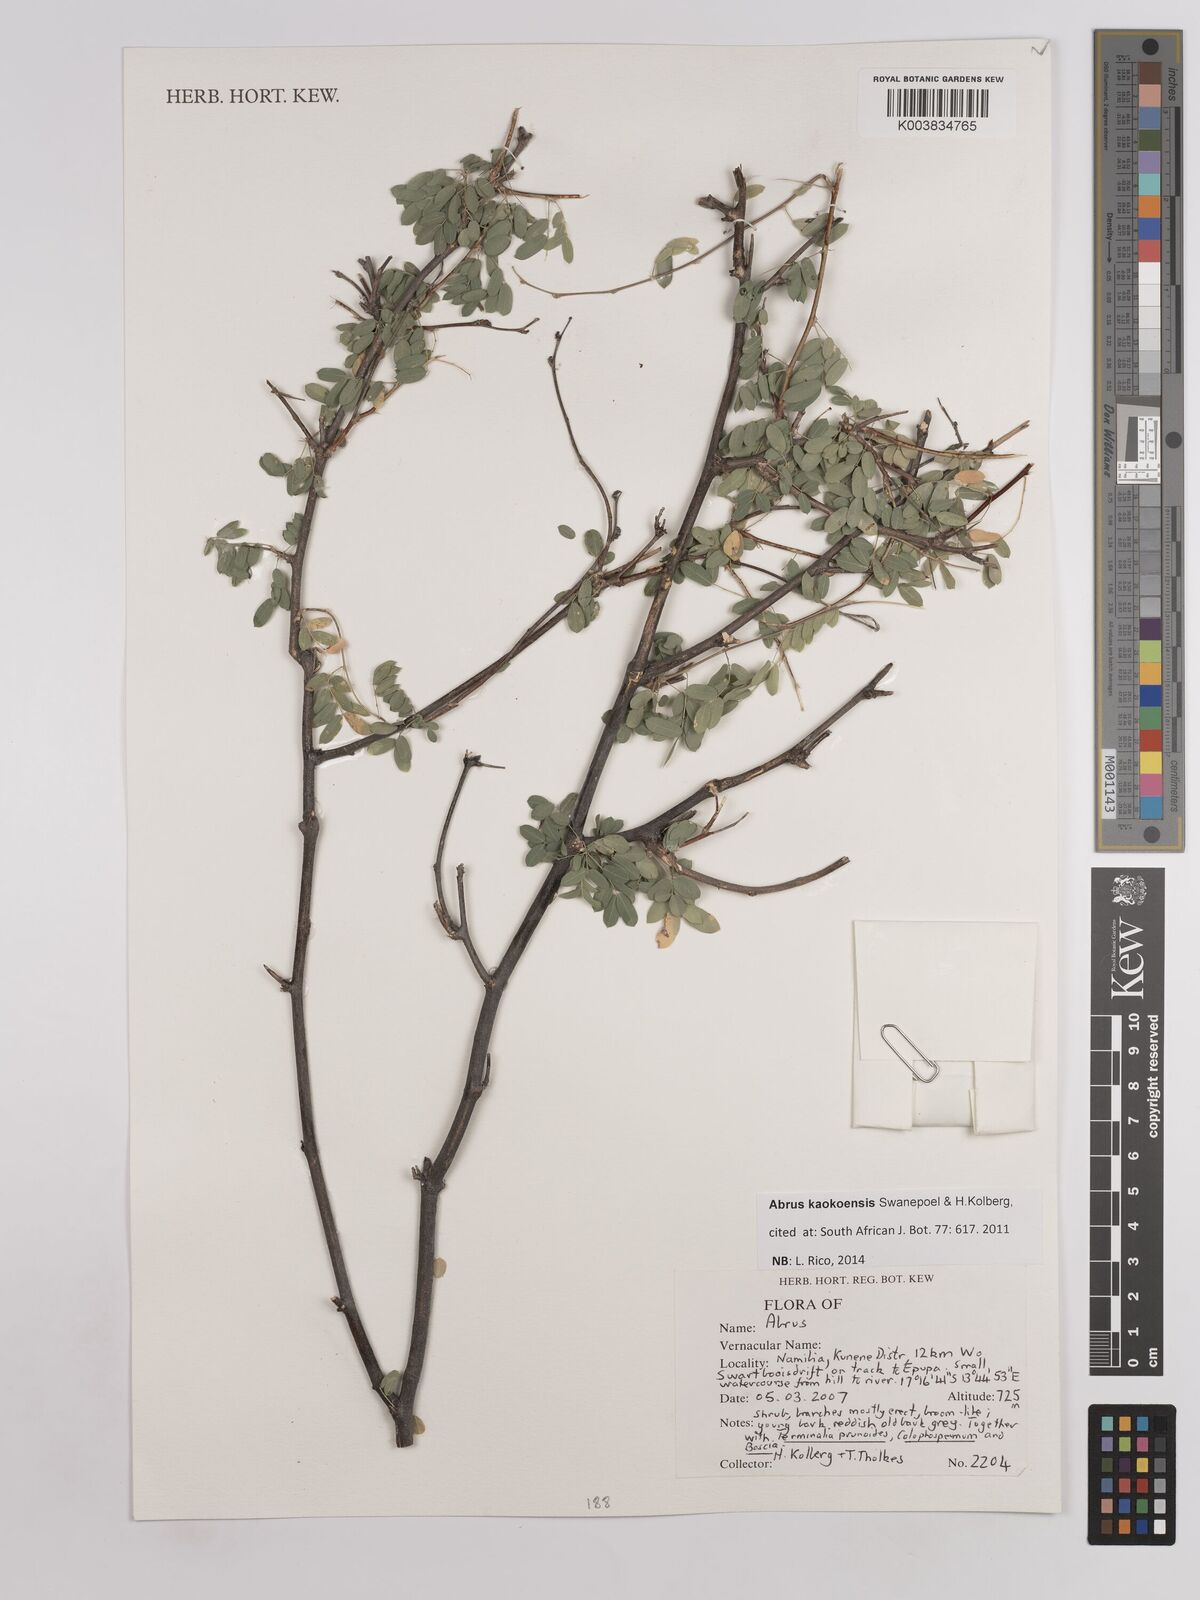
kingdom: Plantae
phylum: Tracheophyta
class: Magnoliopsida
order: Fabales
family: Fabaceae
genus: Abrus
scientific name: Abrus kaokoensis
